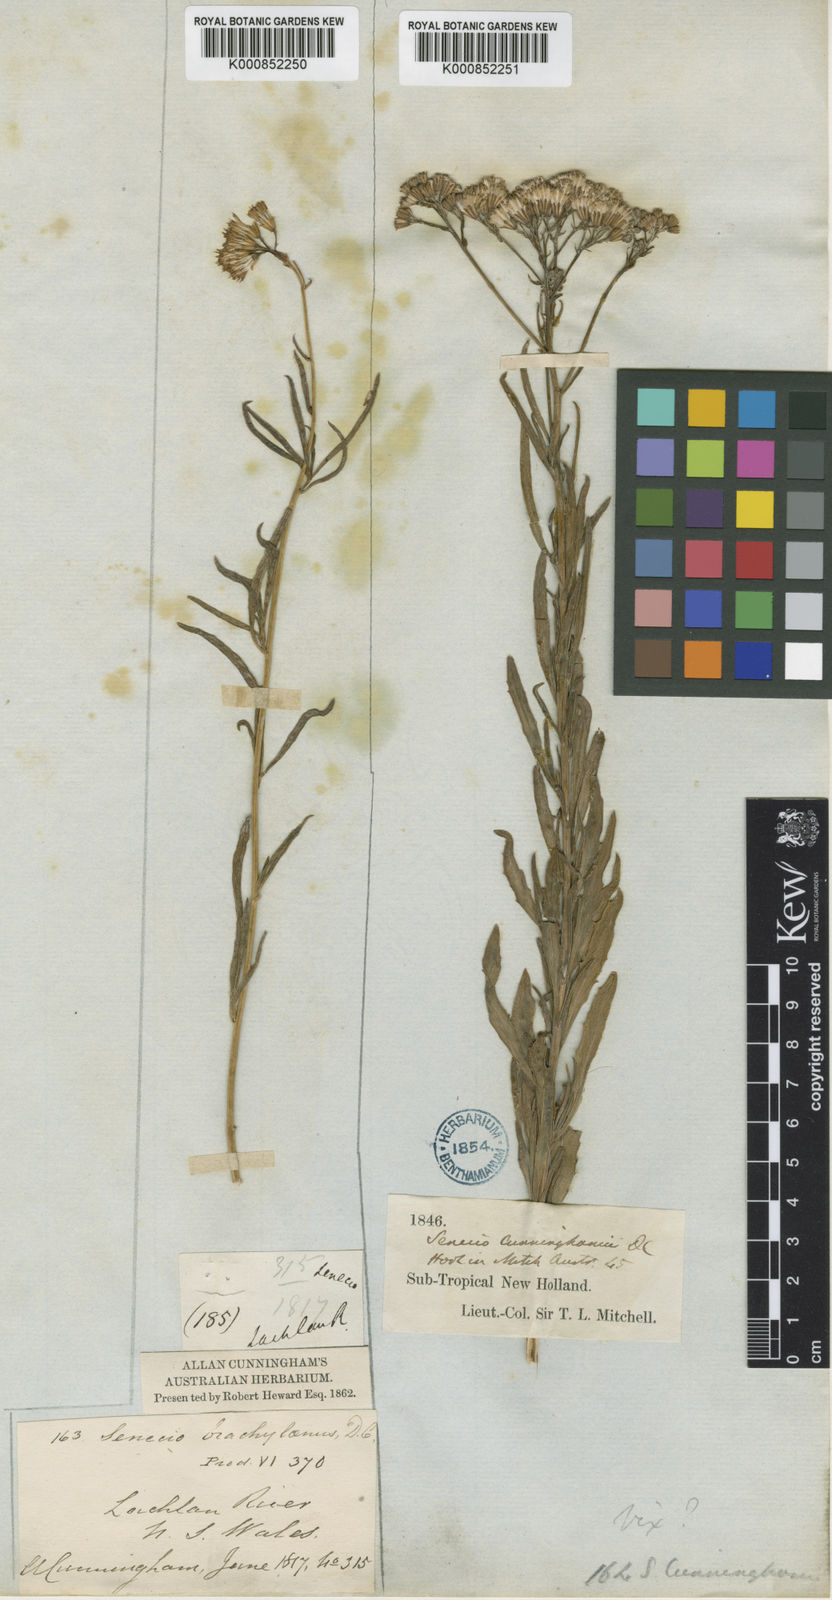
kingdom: Plantae
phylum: Tracheophyta
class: Magnoliopsida
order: Asterales
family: Asteraceae
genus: Senecio
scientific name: Senecio cunninghamii
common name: Bushy groundsel
